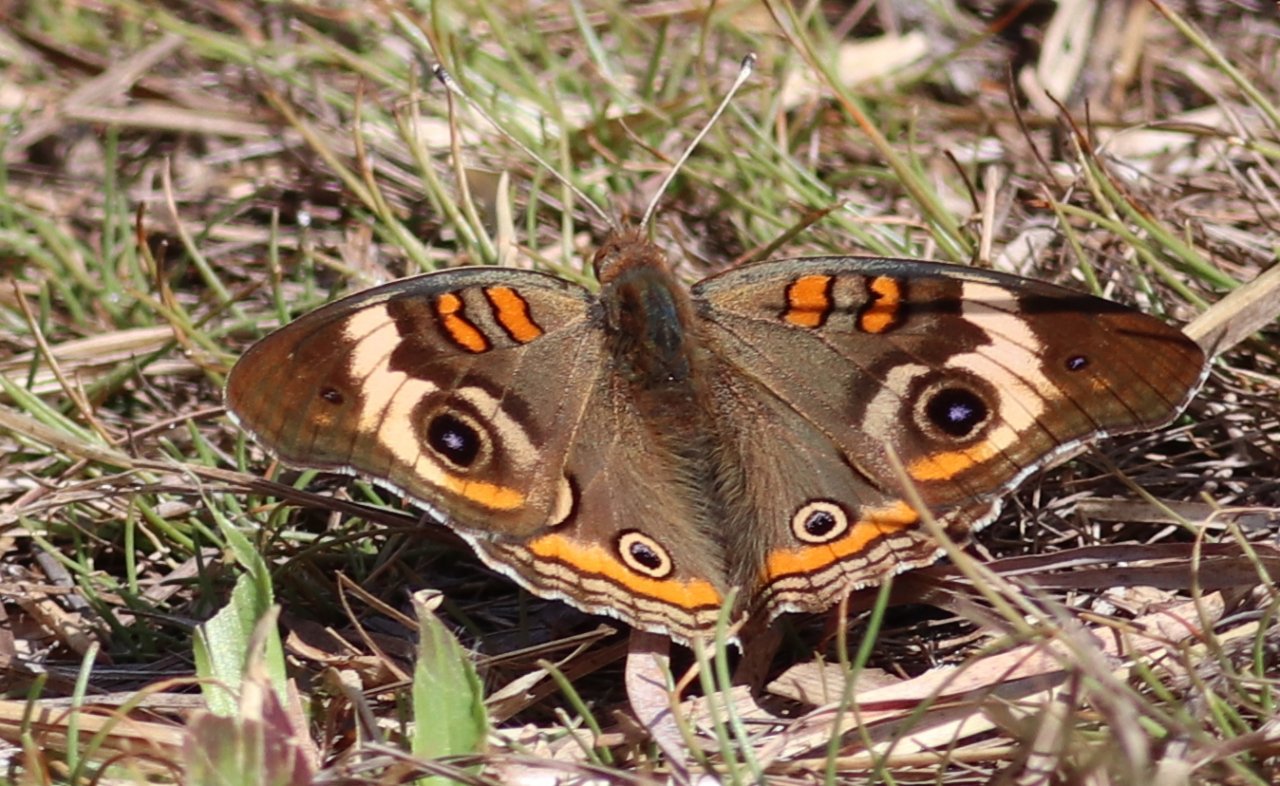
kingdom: Animalia
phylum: Arthropoda
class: Insecta
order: Lepidoptera
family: Nymphalidae
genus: Junonia
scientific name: Junonia coenia
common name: Common Buckeye
